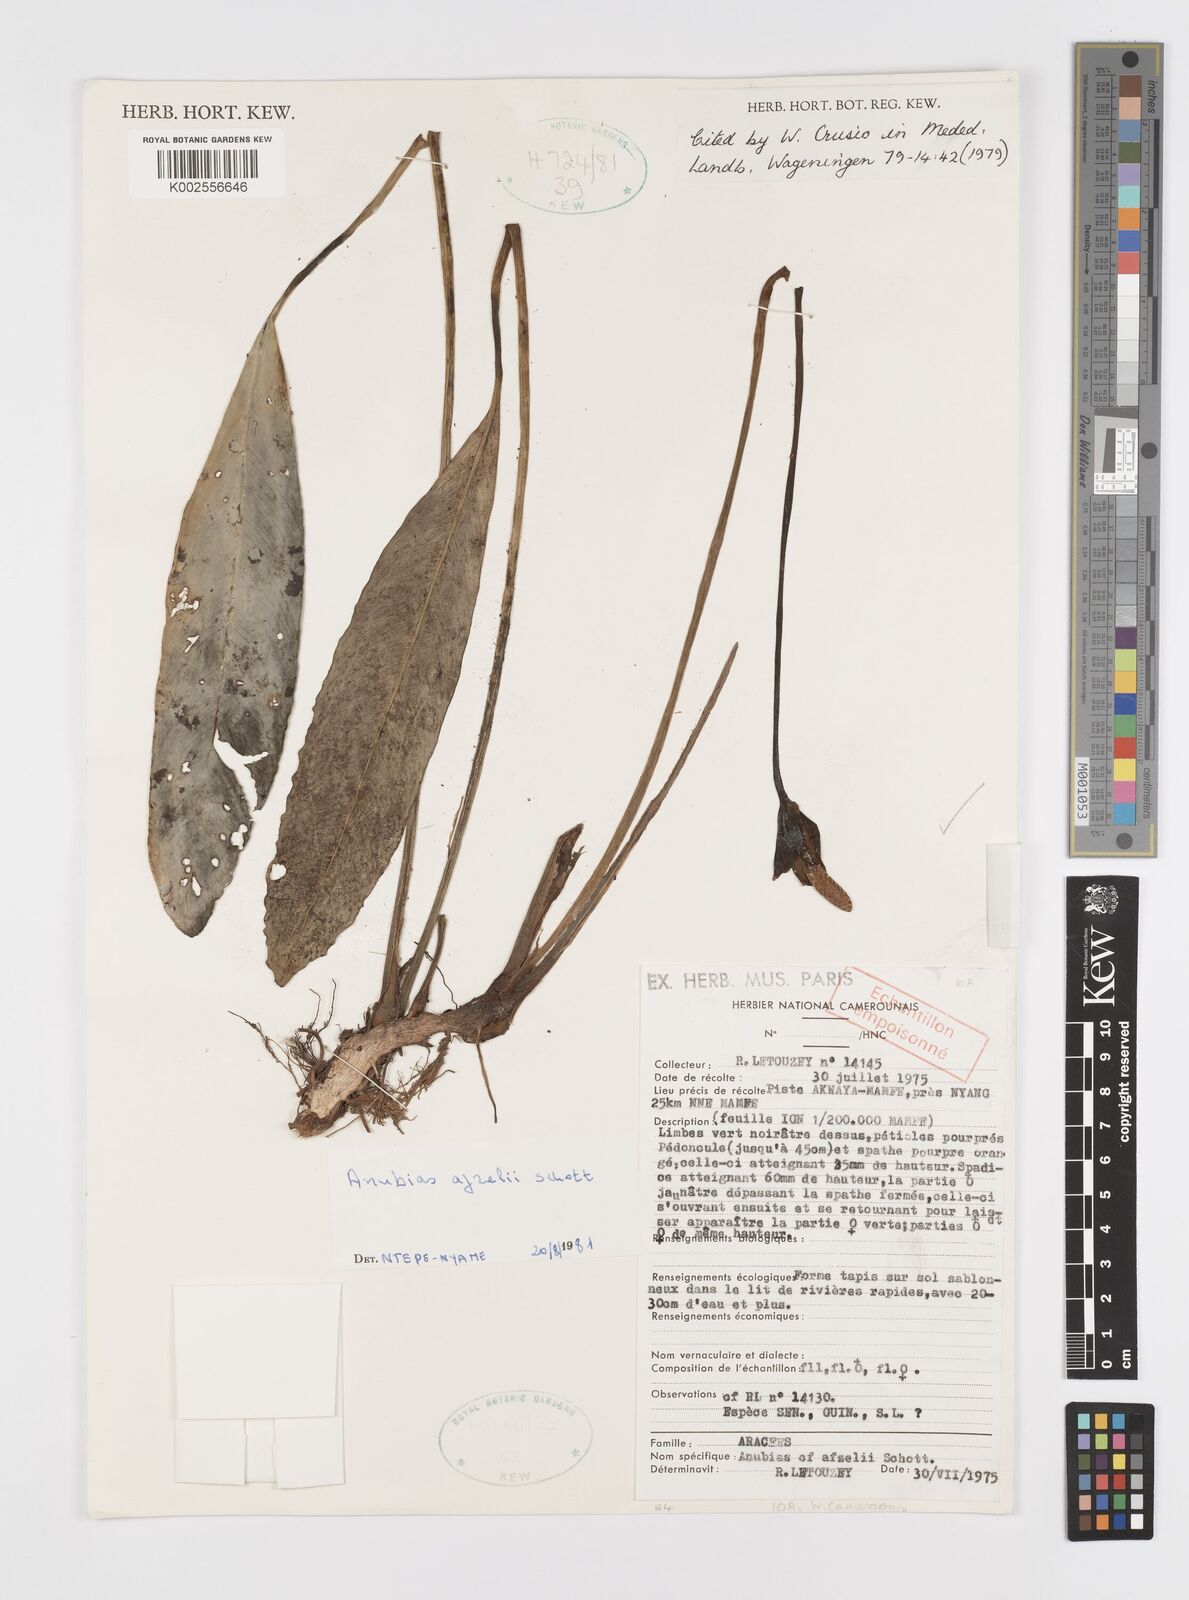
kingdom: Plantae
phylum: Tracheophyta
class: Liliopsida
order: Alismatales
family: Araceae
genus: Anubias
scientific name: Anubias heterophylla
